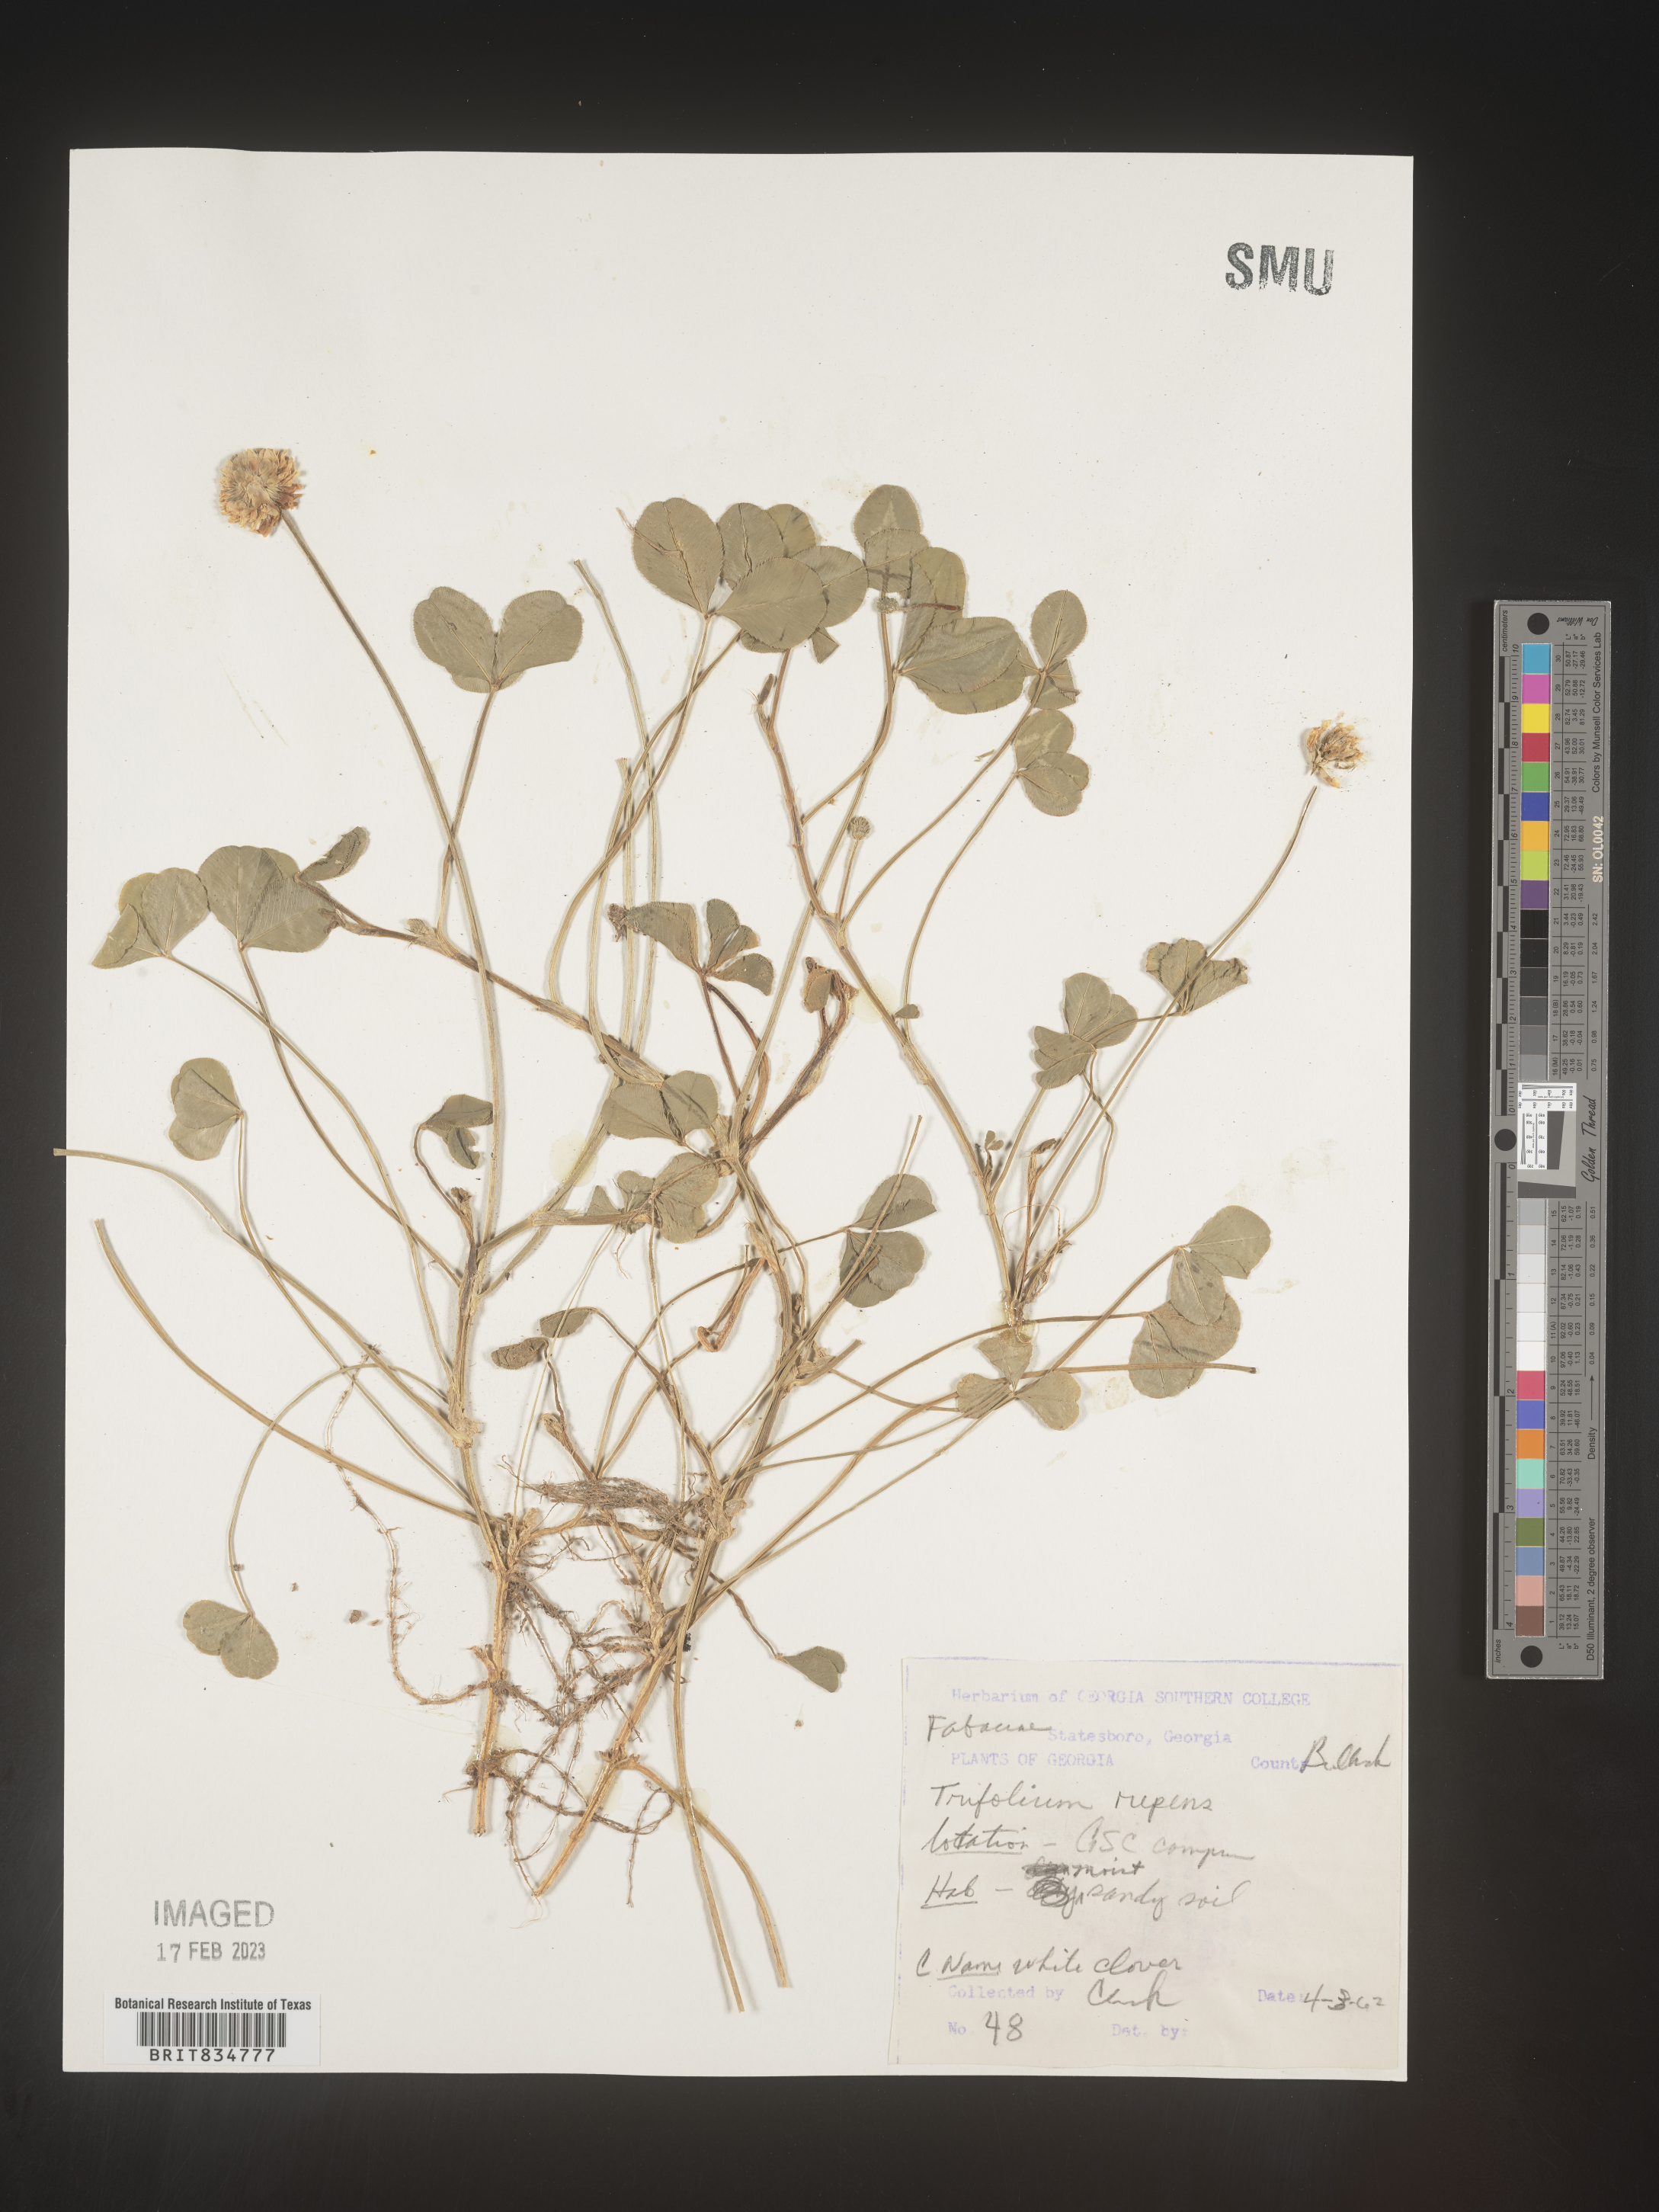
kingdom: Plantae
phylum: Tracheophyta
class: Magnoliopsida
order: Fabales
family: Fabaceae
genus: Trifolium
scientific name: Trifolium repens
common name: White clover
